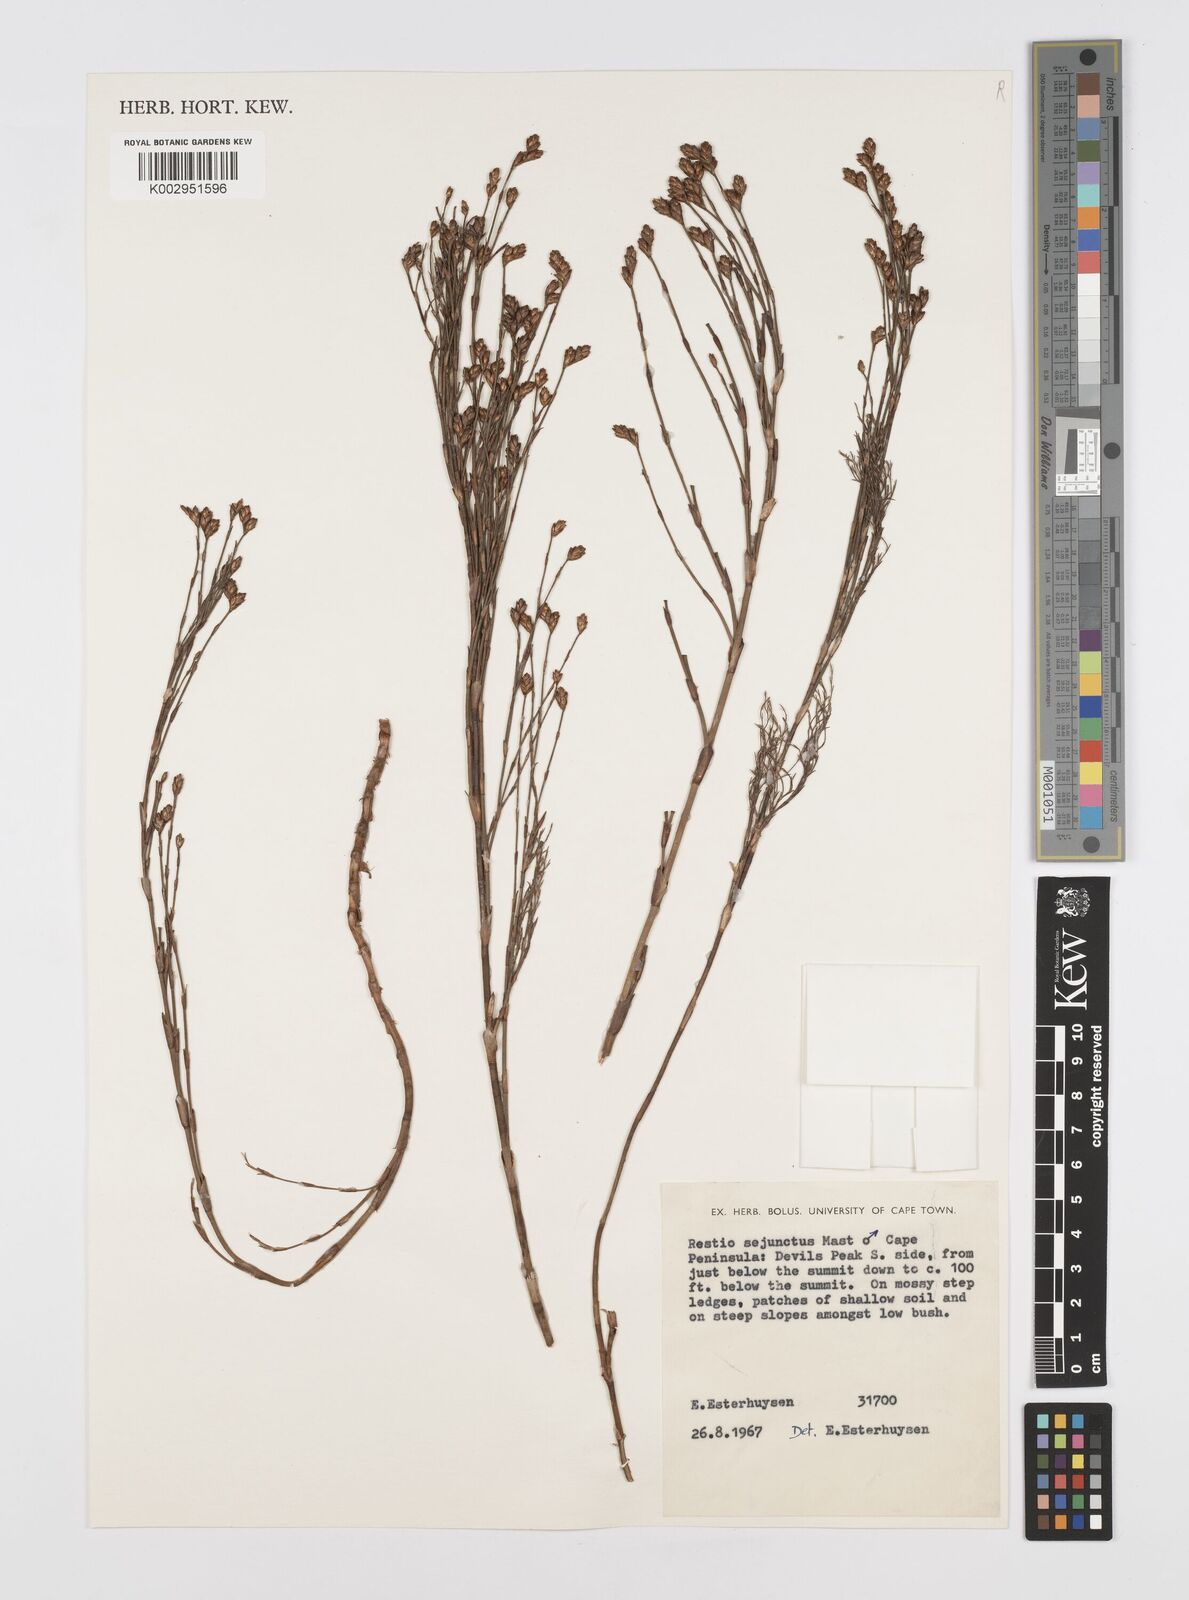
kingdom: Plantae
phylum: Tracheophyta
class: Liliopsida
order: Poales
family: Restionaceae
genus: Restio
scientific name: Restio sejunctus
